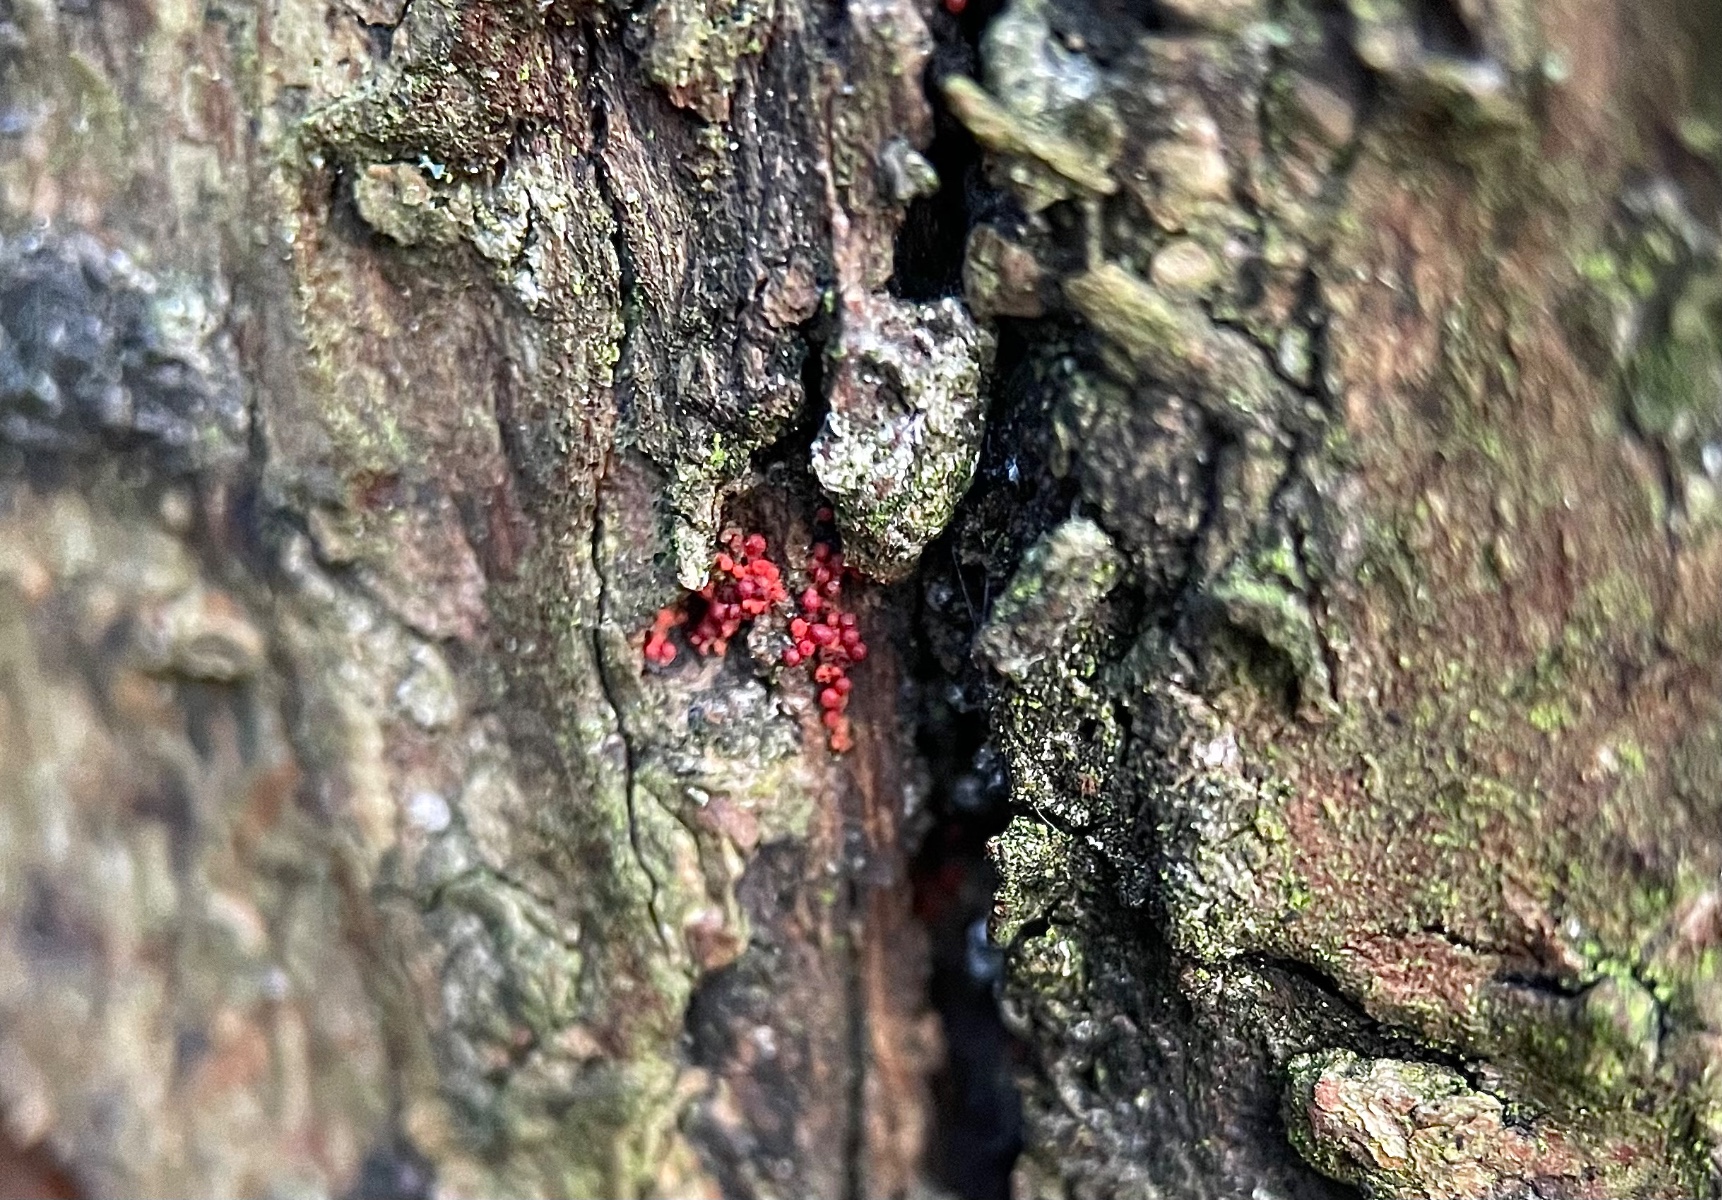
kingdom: Fungi
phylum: Ascomycota
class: Sordariomycetes
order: Hypocreales
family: Nectriaceae
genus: Corinectria
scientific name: Corinectria fuckeliana
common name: grankræft-cinnobersvamp
